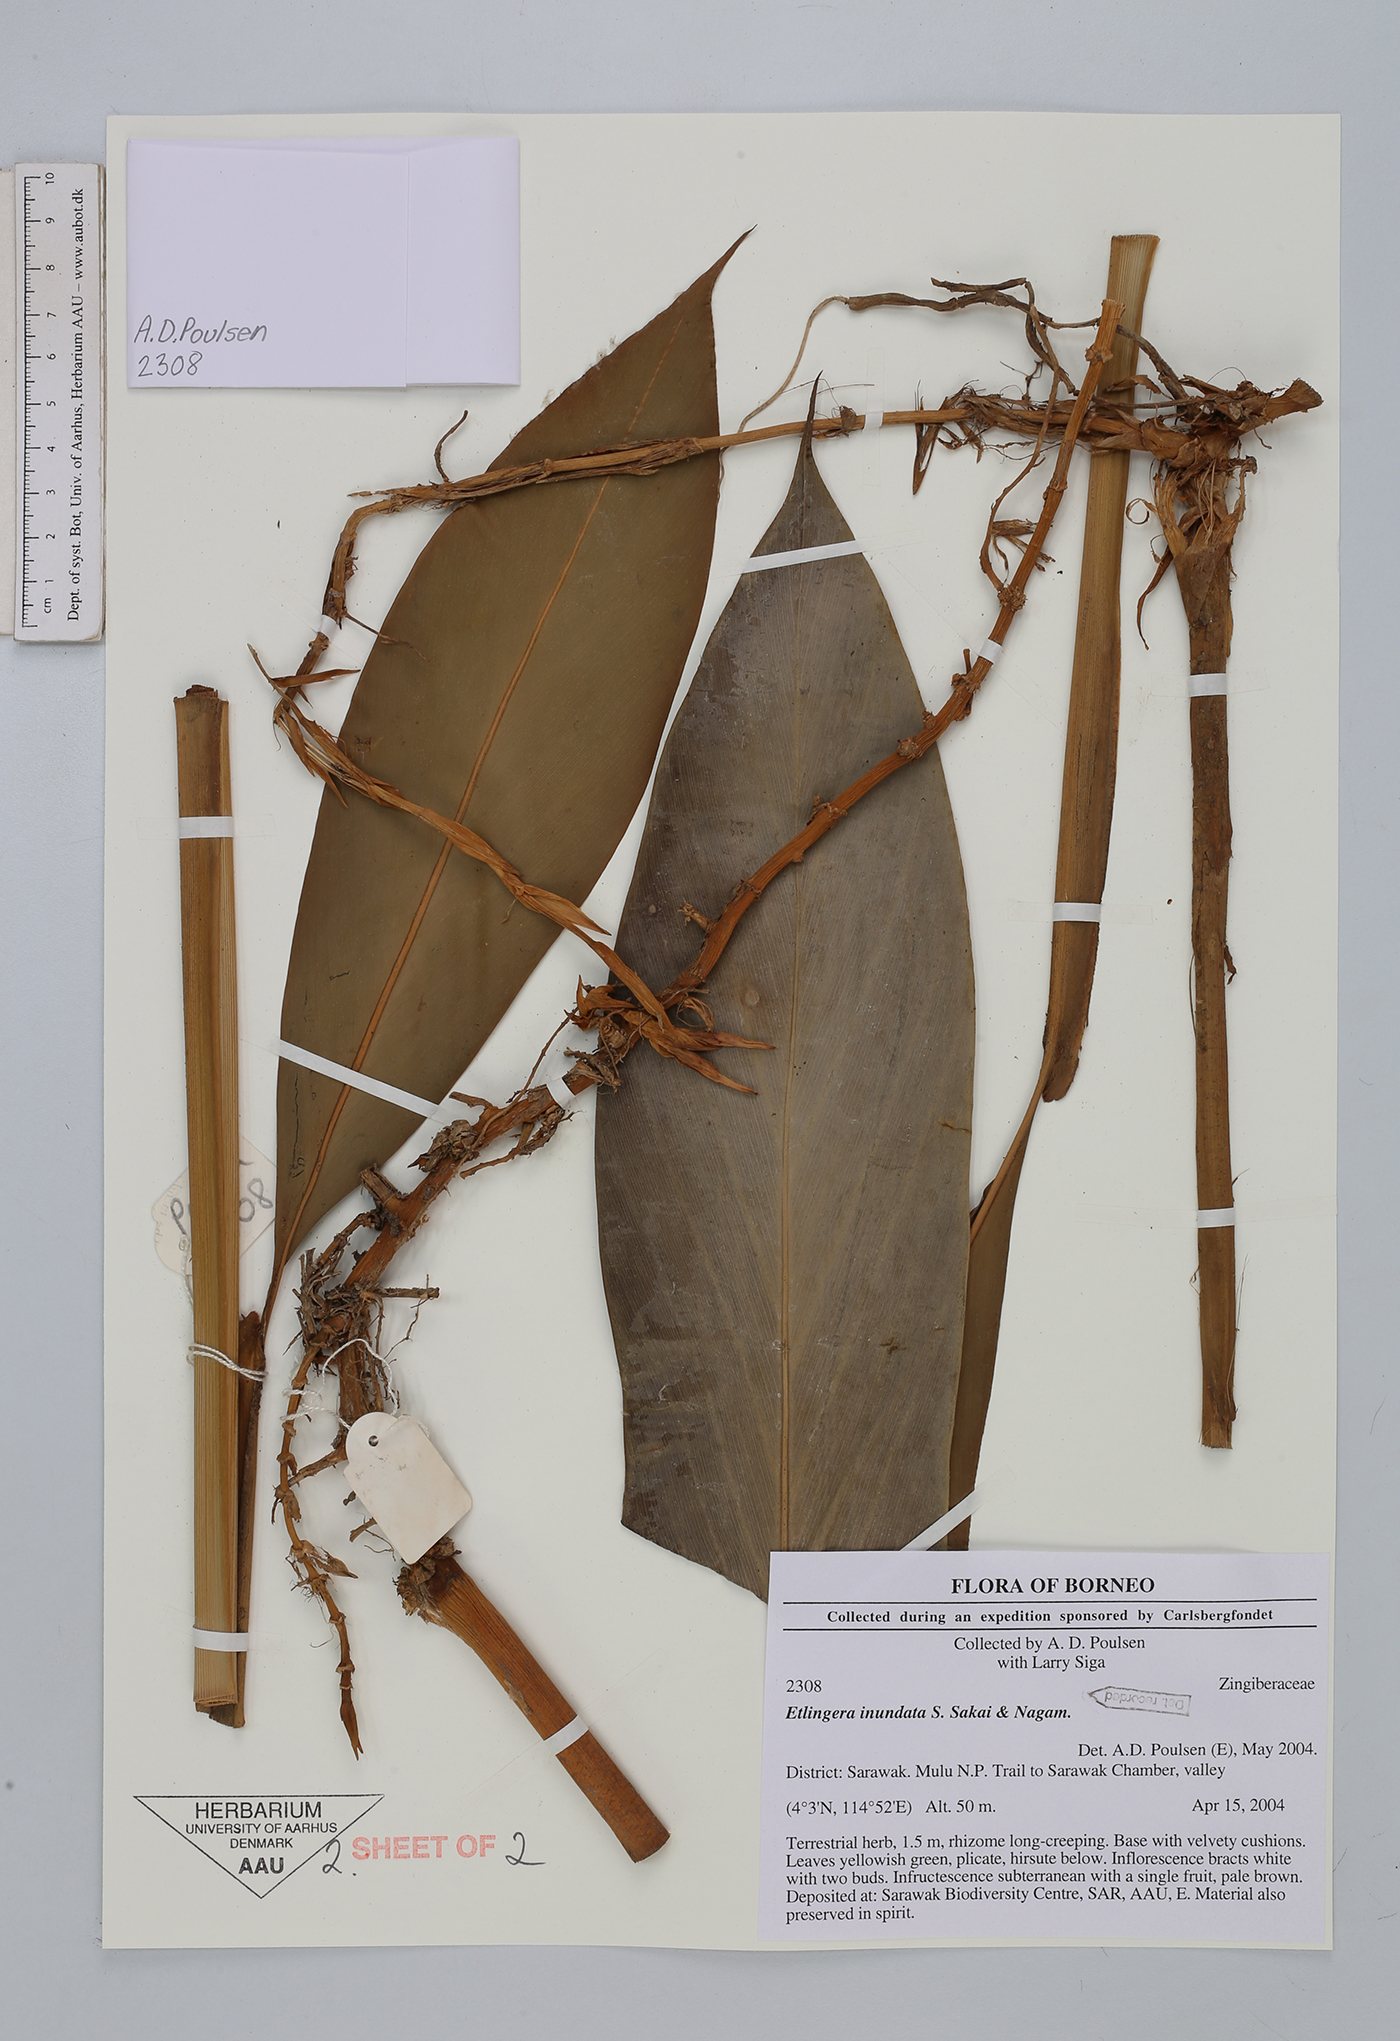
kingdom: Plantae
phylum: Tracheophyta
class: Liliopsida
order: Zingiberales
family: Zingiberaceae
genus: Etlingera
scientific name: Etlingera inundata
